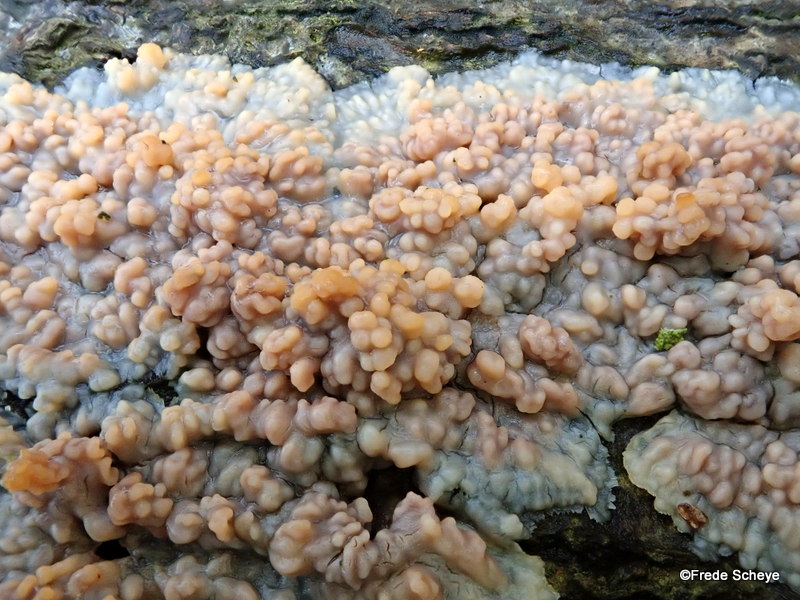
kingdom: Fungi
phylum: Basidiomycota
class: Agaricomycetes
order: Polyporales
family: Meruliaceae
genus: Phlebia
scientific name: Phlebia radiata
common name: stråle-åresvamp
